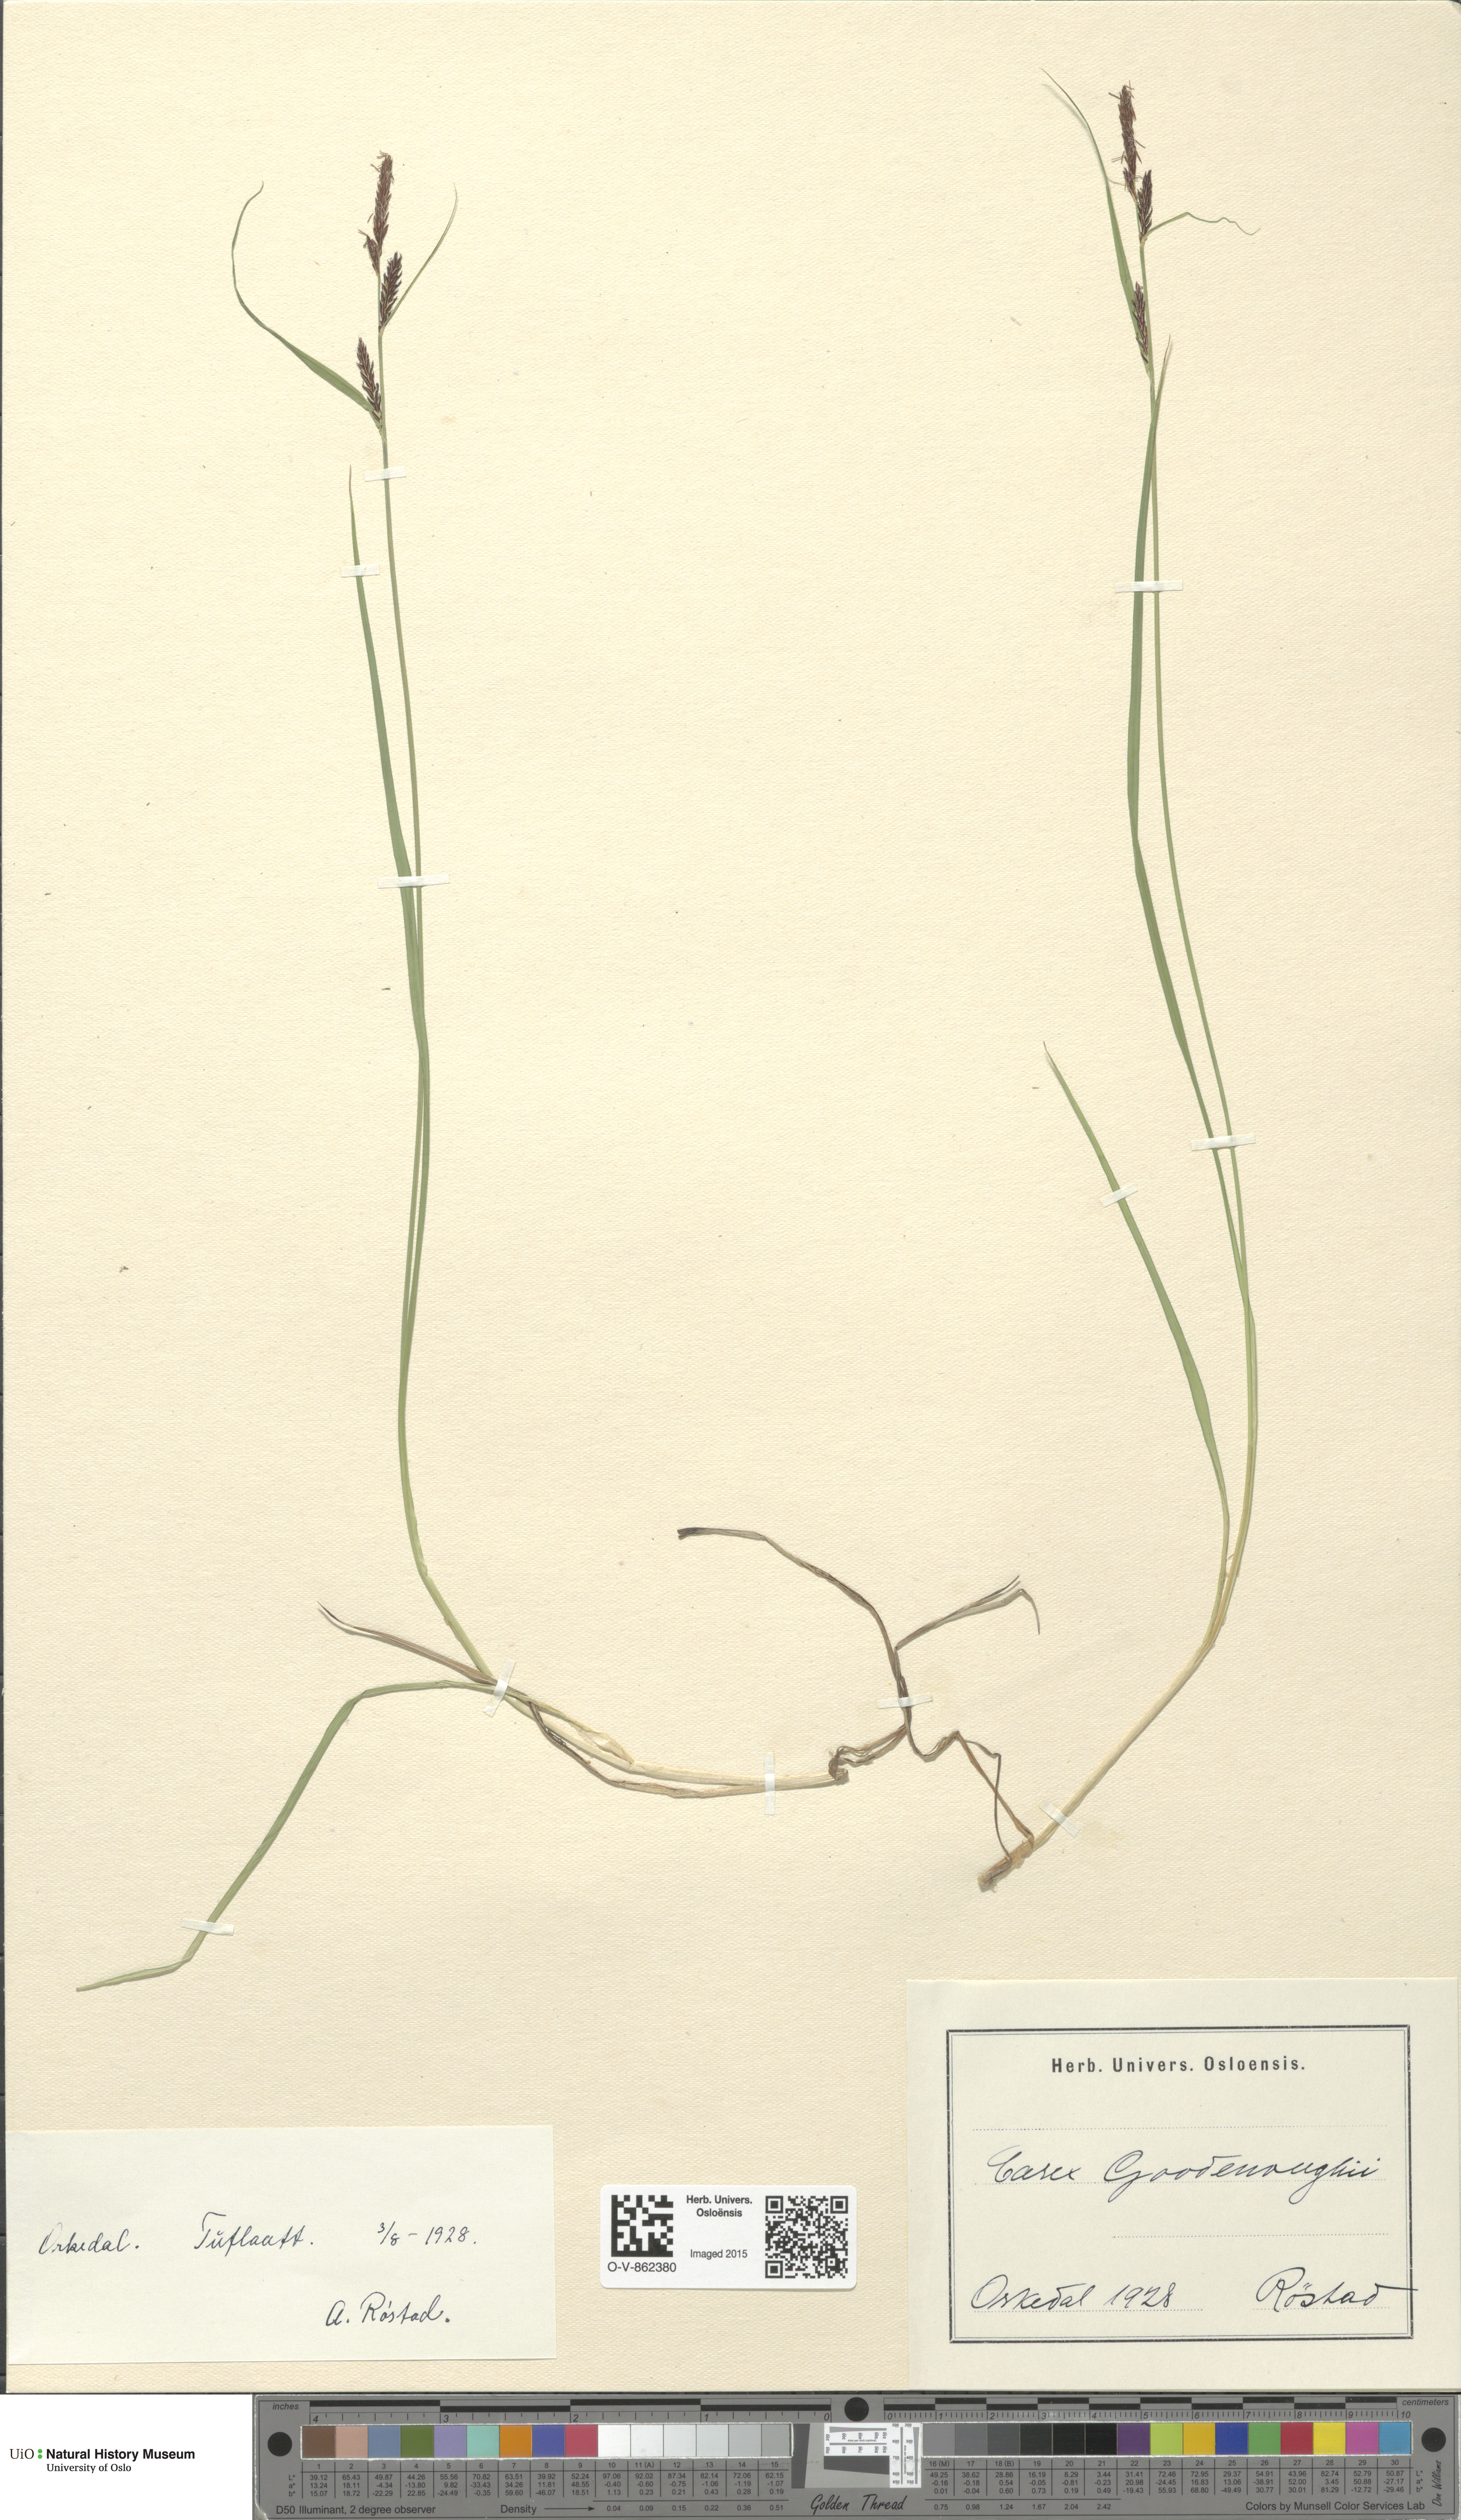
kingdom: Plantae
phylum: Tracheophyta
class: Liliopsida
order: Poales
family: Cyperaceae
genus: Carex
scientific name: Carex nigra
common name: Common sedge
